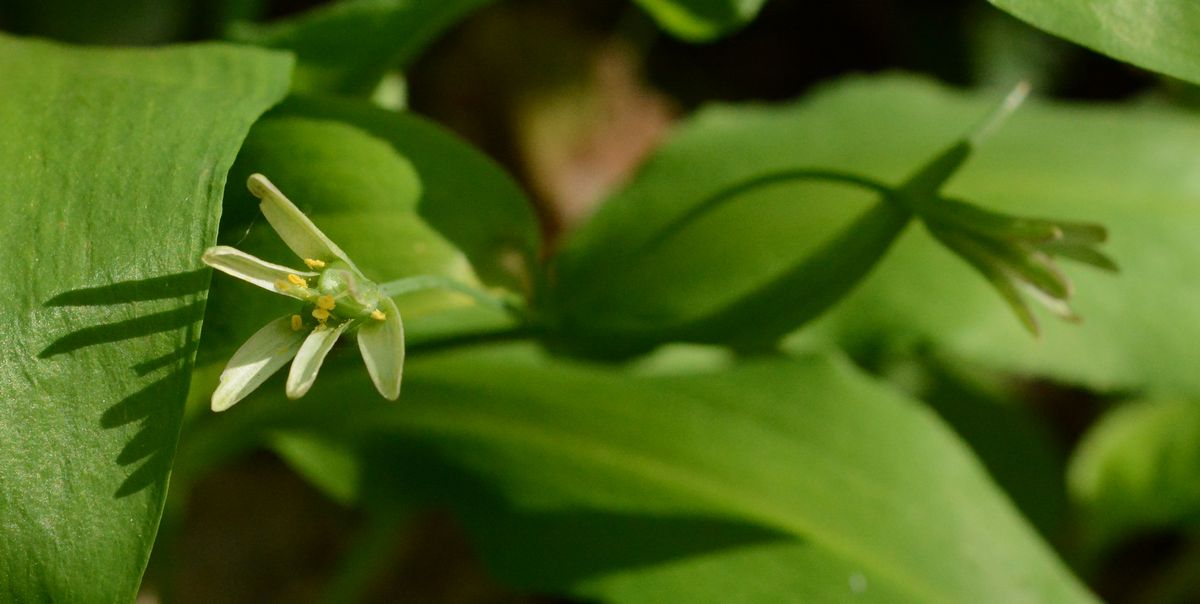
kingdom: Plantae
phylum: Tracheophyta
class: Liliopsida
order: Liliales
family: Liliaceae
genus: Gagea
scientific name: Gagea lutea
